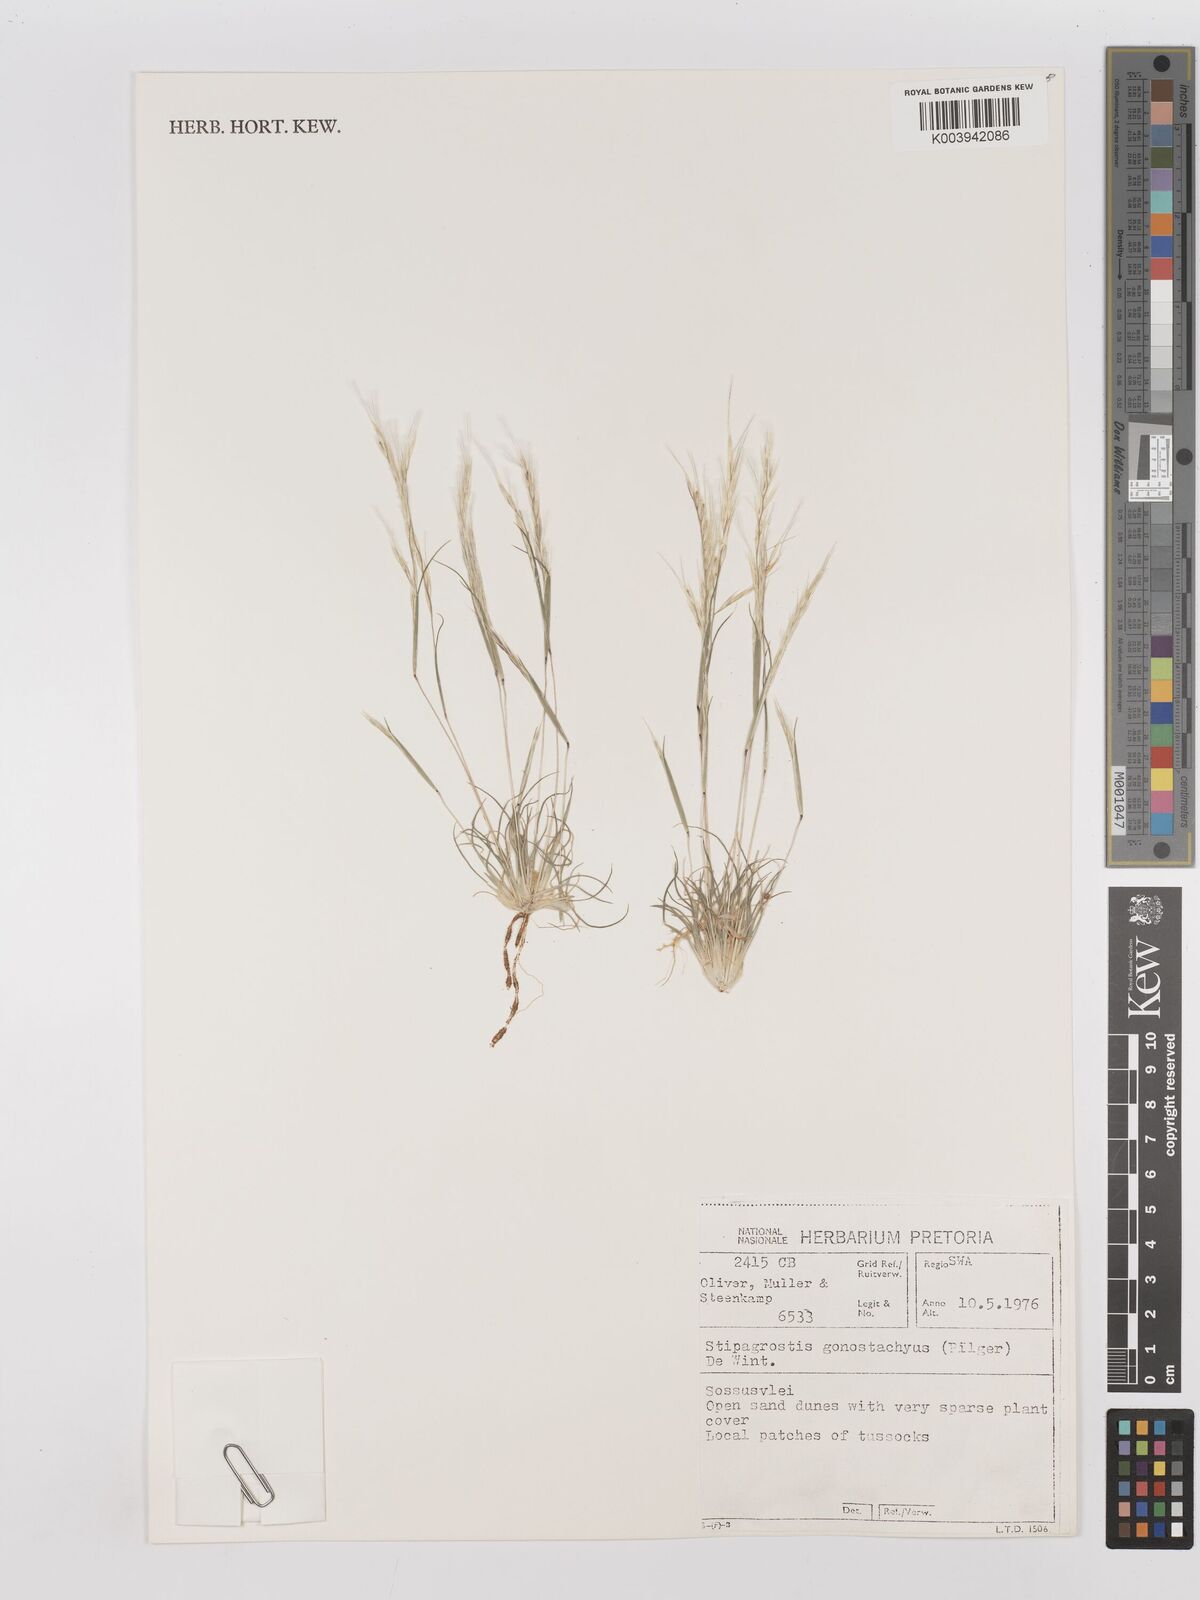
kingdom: Plantae
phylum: Tracheophyta
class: Liliopsida
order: Poales
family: Poaceae
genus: Stipagrostis
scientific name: Stipagrostis gonatostachys
